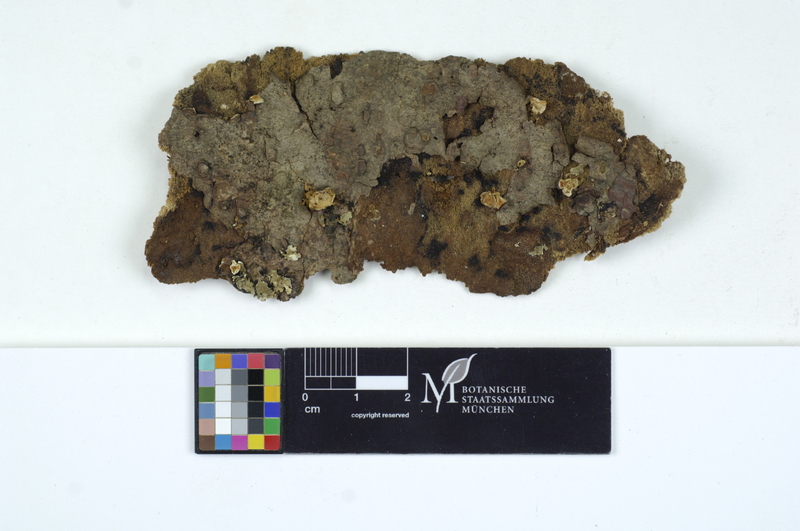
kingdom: Plantae
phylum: Tracheophyta
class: Pinopsida
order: Pinales
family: Pinaceae
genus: Abies
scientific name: Abies
